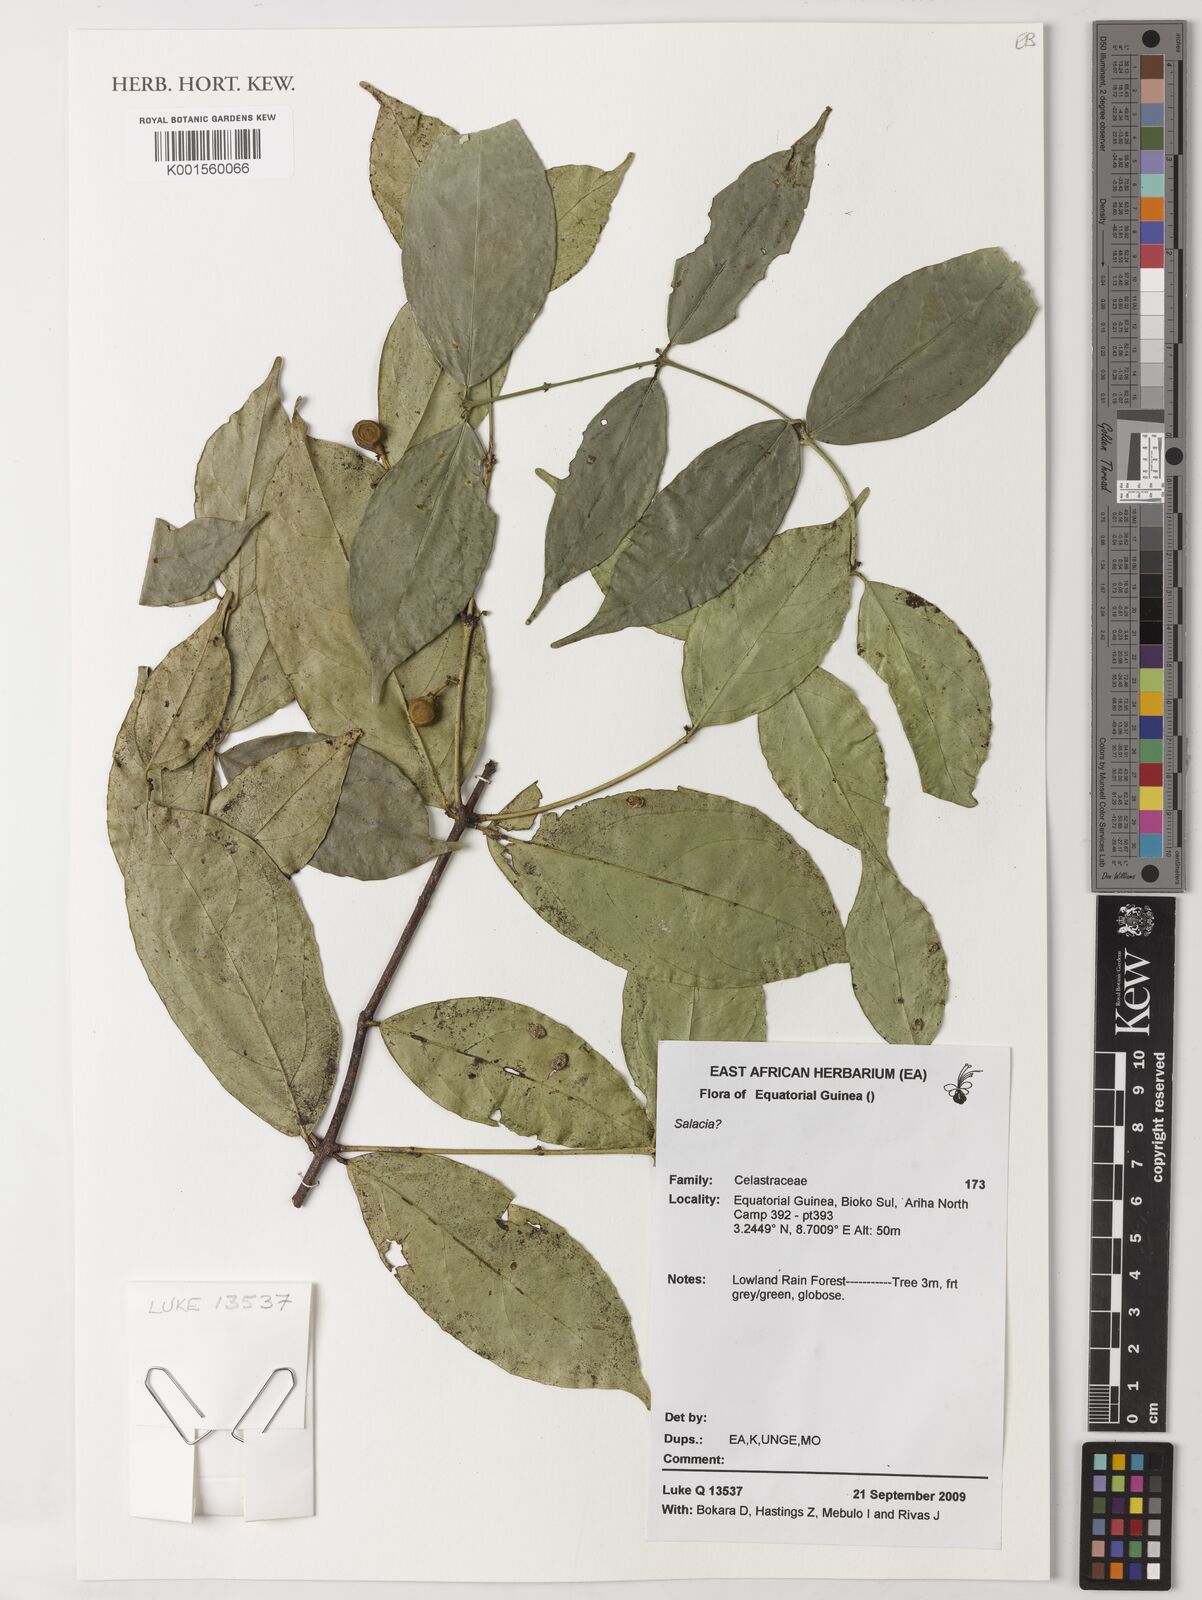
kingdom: Plantae
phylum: Tracheophyta
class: Magnoliopsida
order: Celastrales
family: Celastraceae
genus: Salacia
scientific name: Salacia
